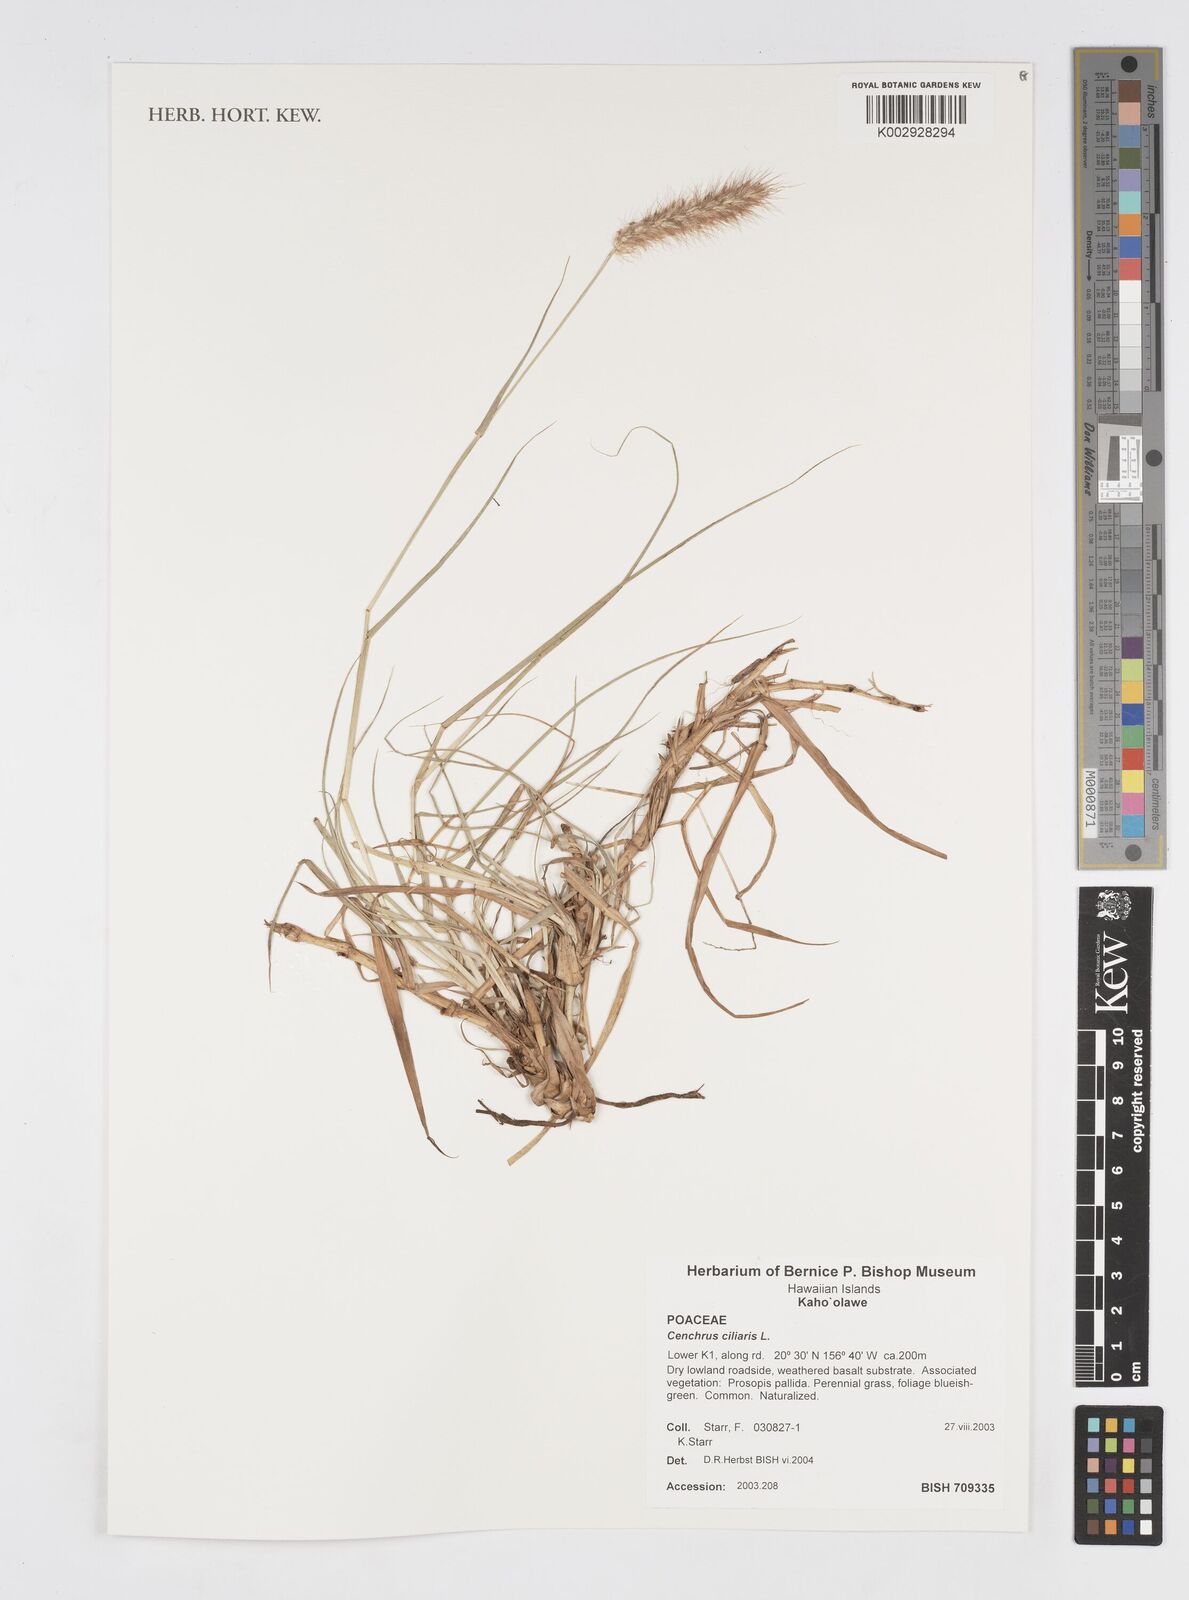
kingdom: Plantae
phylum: Tracheophyta
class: Liliopsida
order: Poales
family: Poaceae
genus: Cenchrus
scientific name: Cenchrus ciliaris
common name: Buffelgrass
